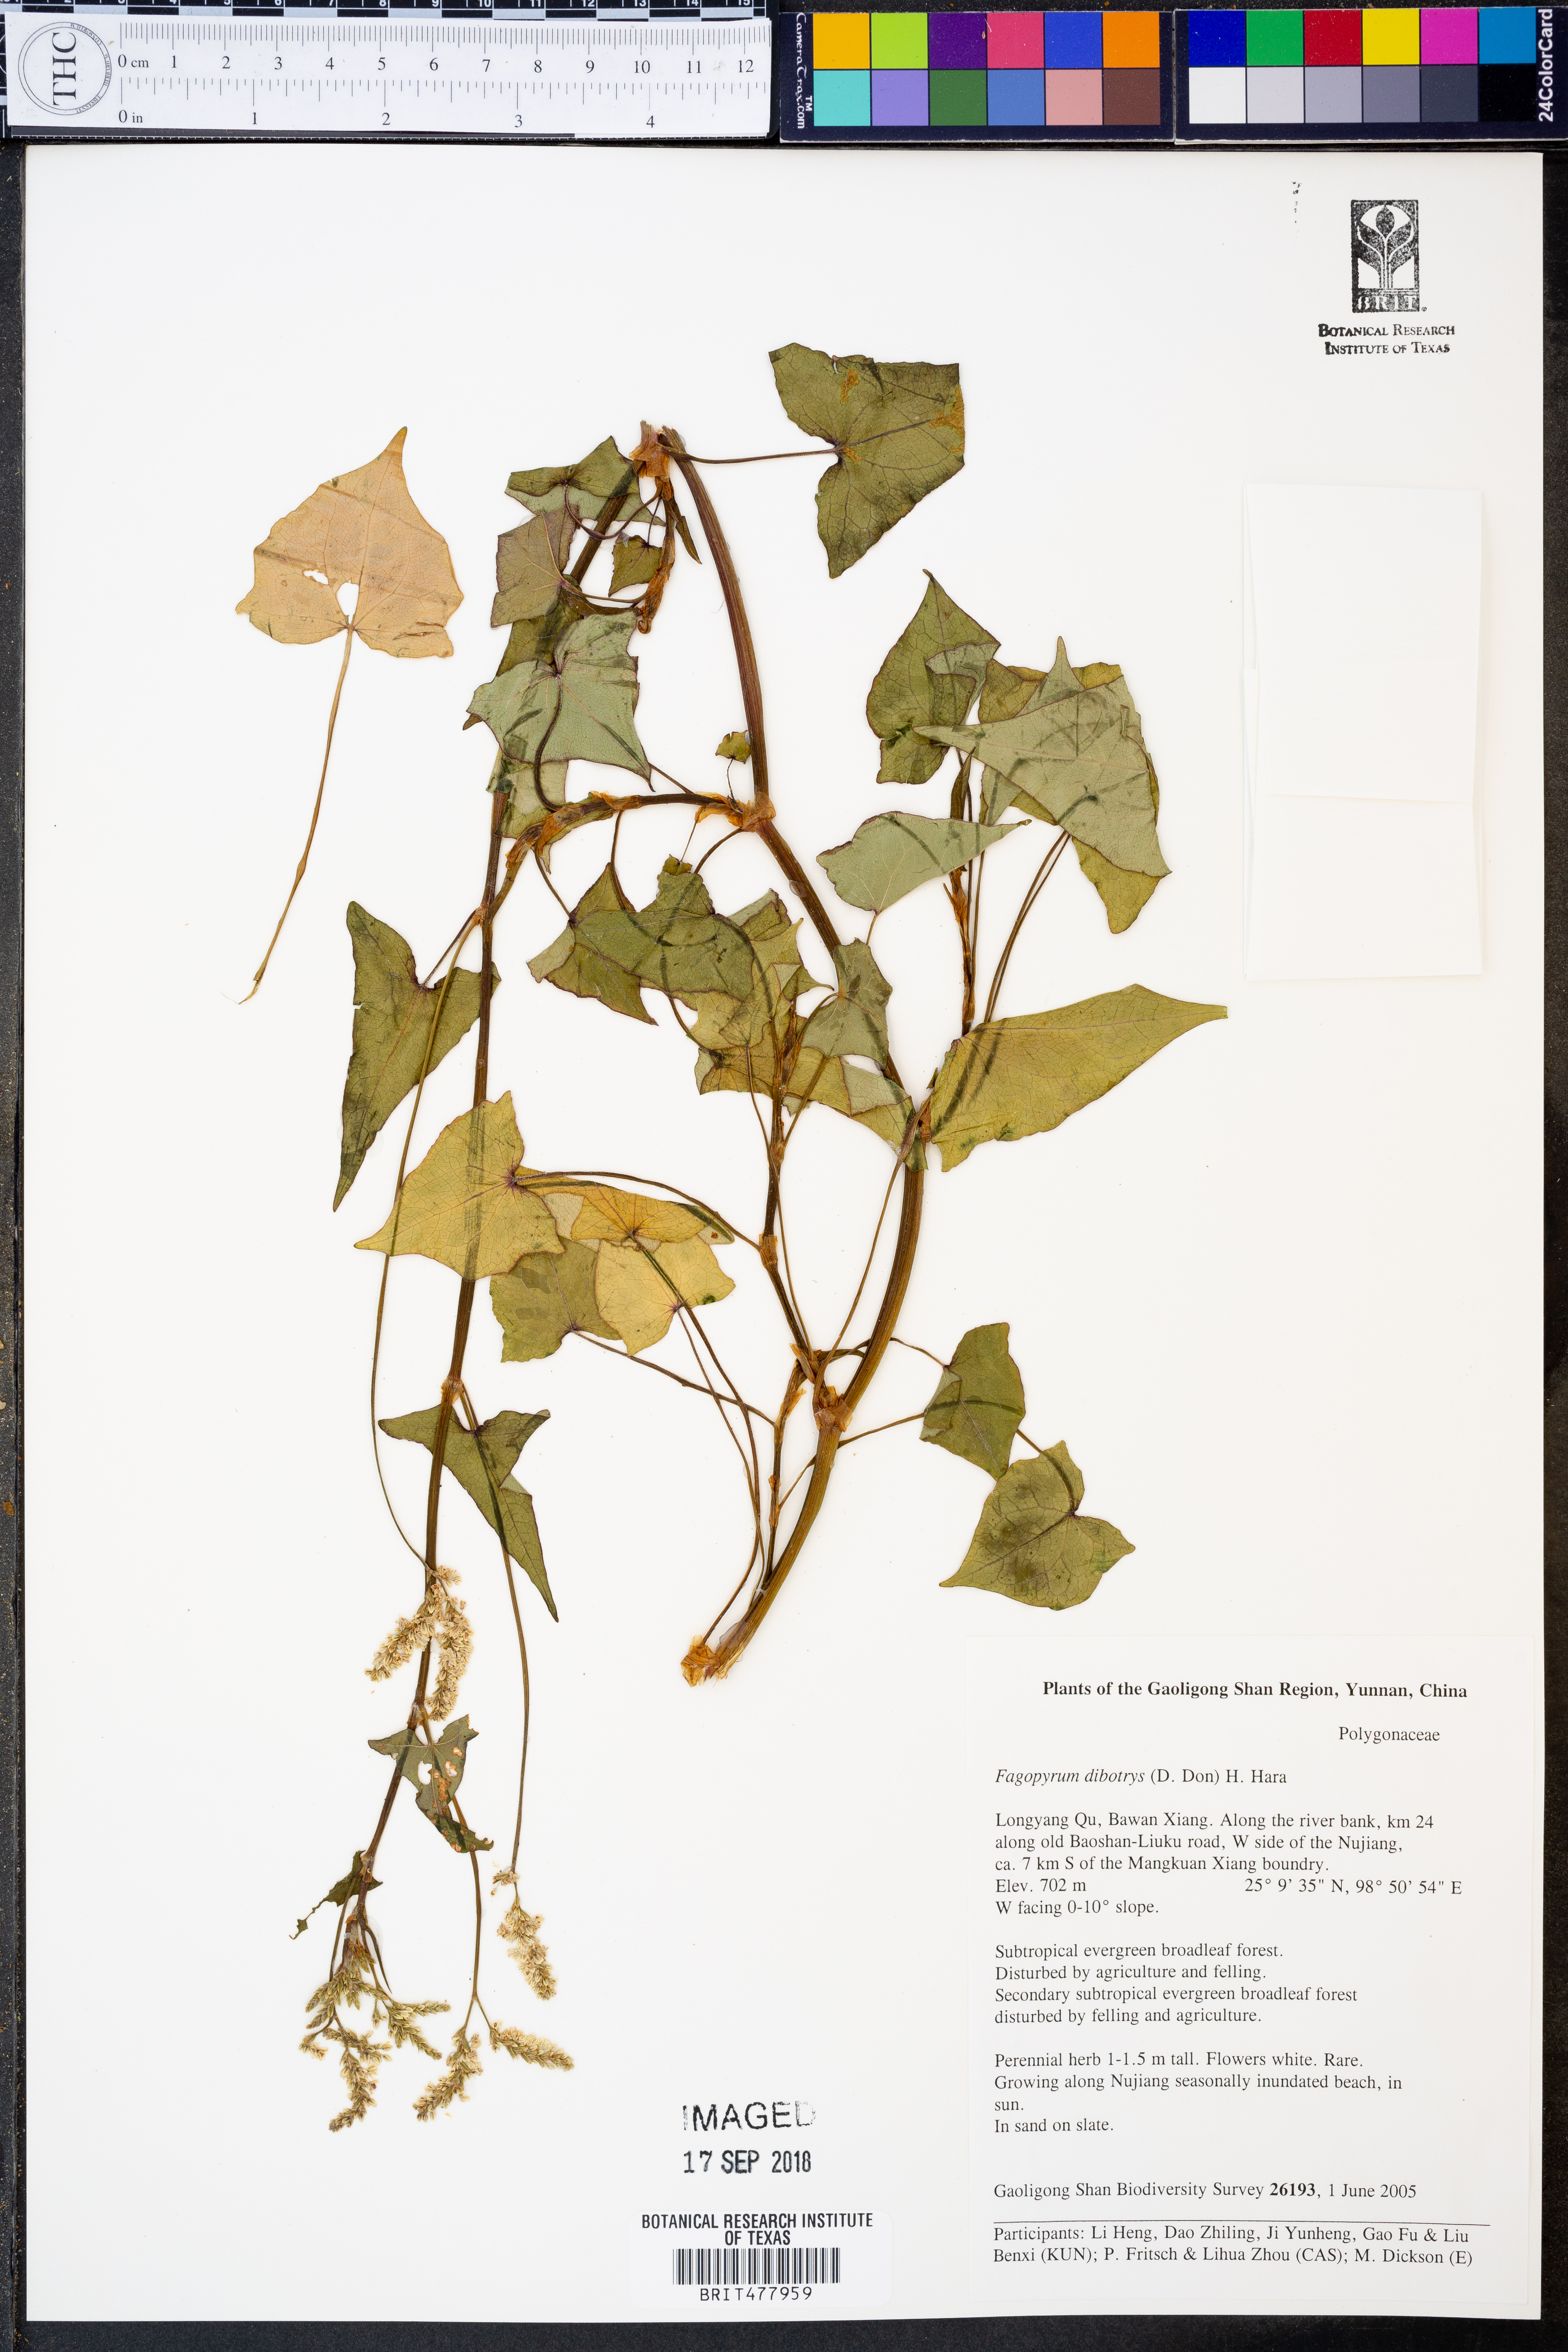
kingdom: Plantae
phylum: Tracheophyta
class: Magnoliopsida
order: Caryophyllales
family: Polygonaceae
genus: Fagopyrum
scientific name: Fagopyrum cymosum
